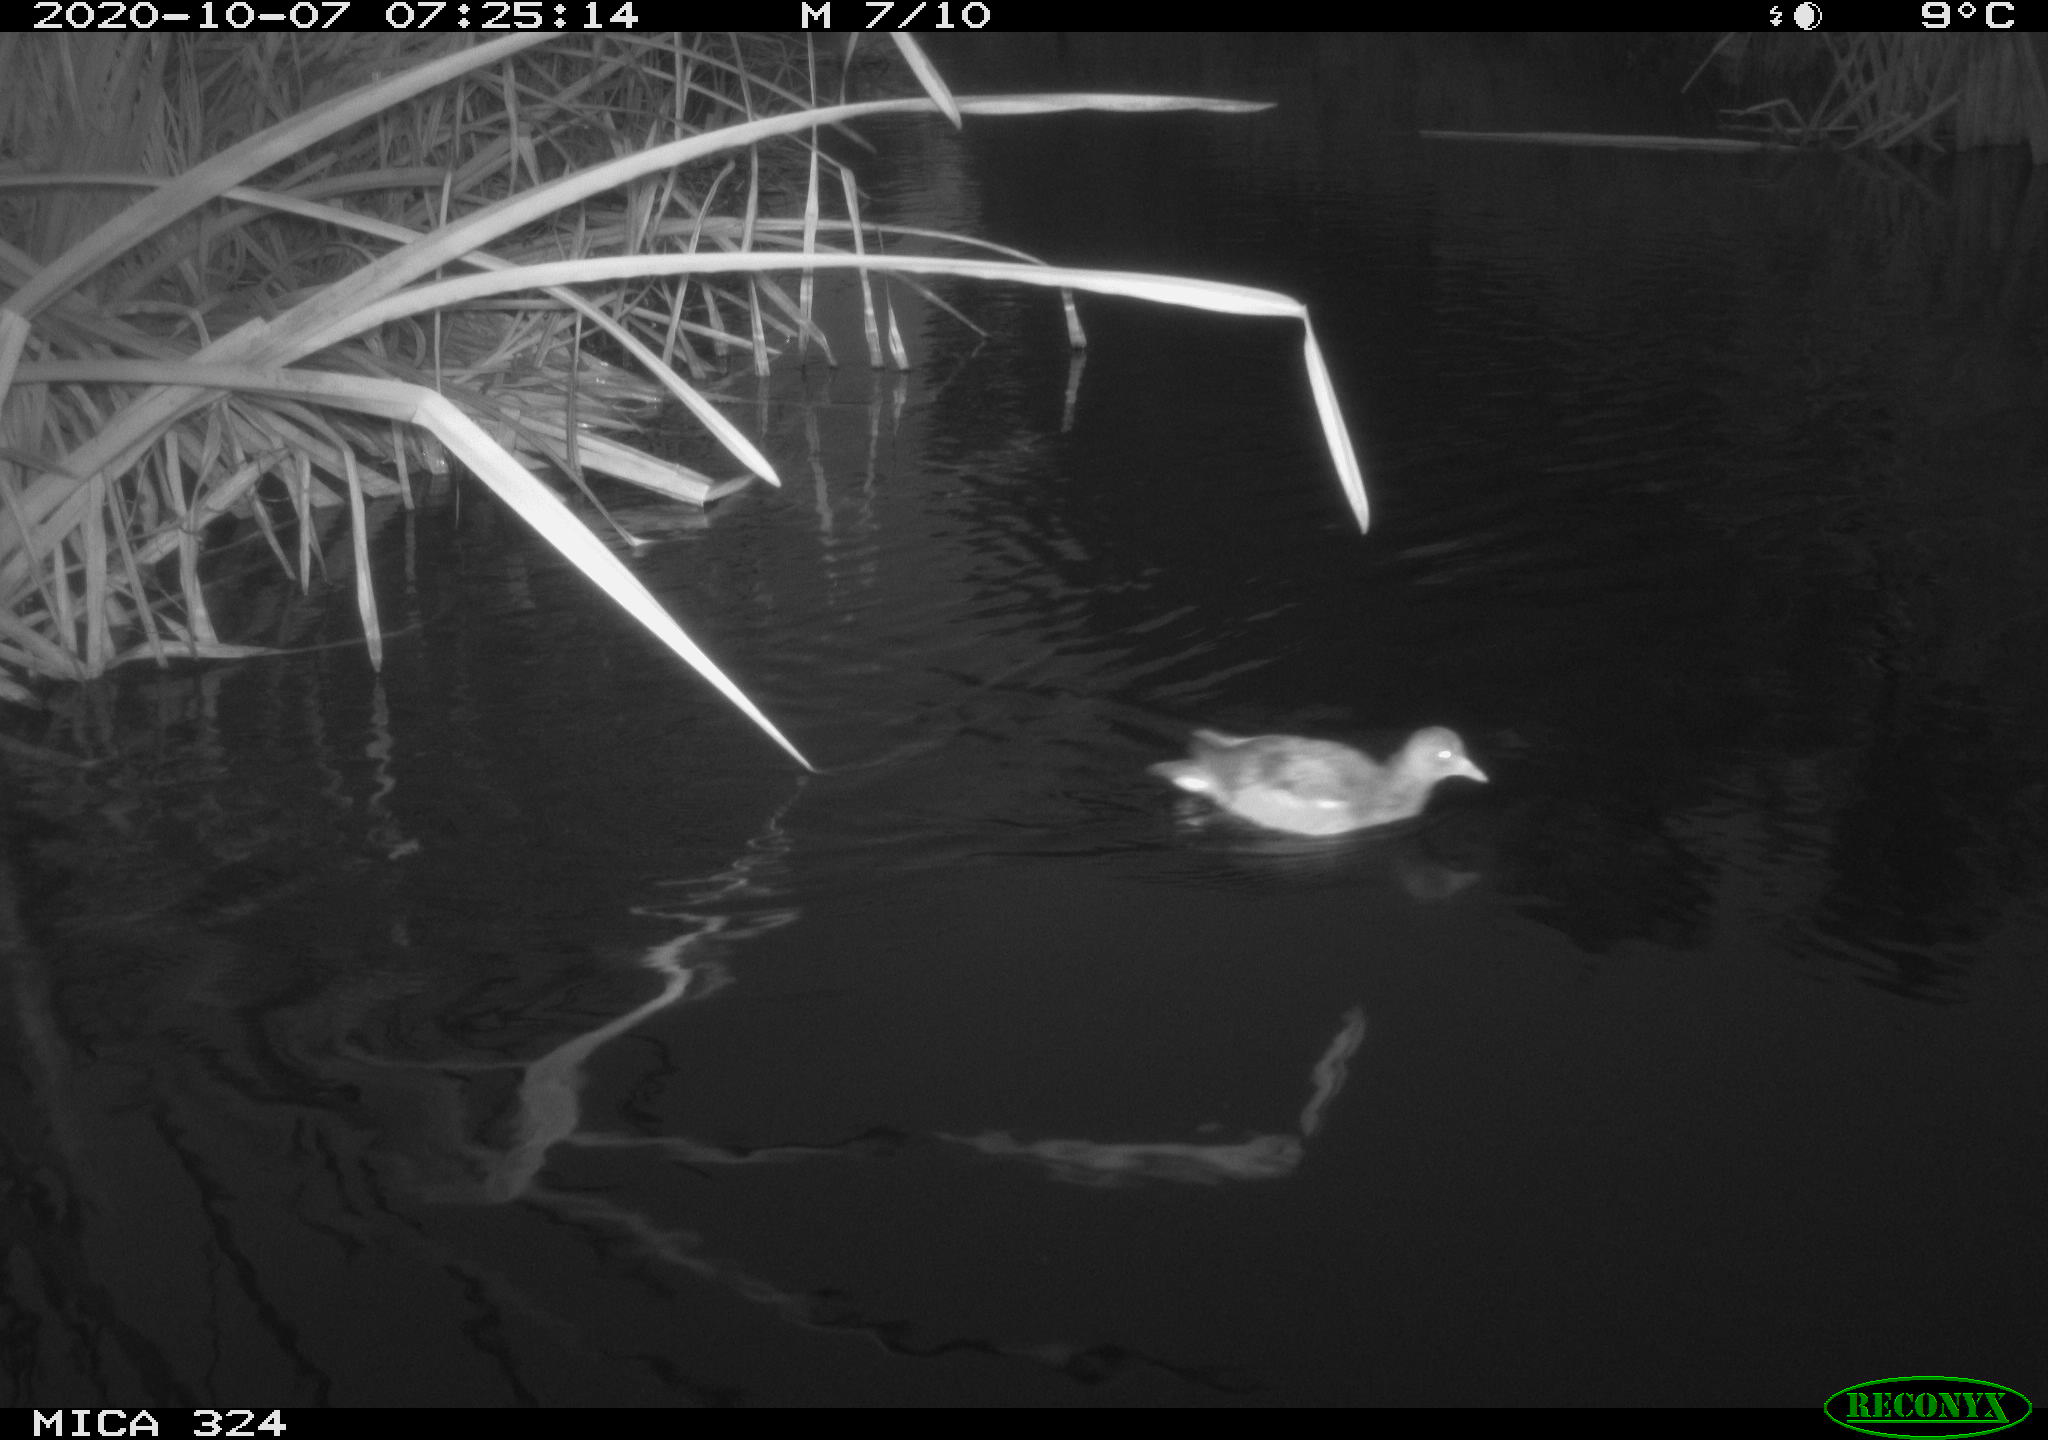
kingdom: Animalia
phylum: Chordata
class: Aves
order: Gruiformes
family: Rallidae
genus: Gallinula
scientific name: Gallinula chloropus
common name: Common moorhen
